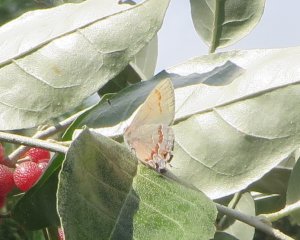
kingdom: Animalia
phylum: Arthropoda
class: Insecta
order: Lepidoptera
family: Lycaenidae
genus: Calycopis
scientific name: Calycopis cecrops
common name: Red-banded Hairstreak
